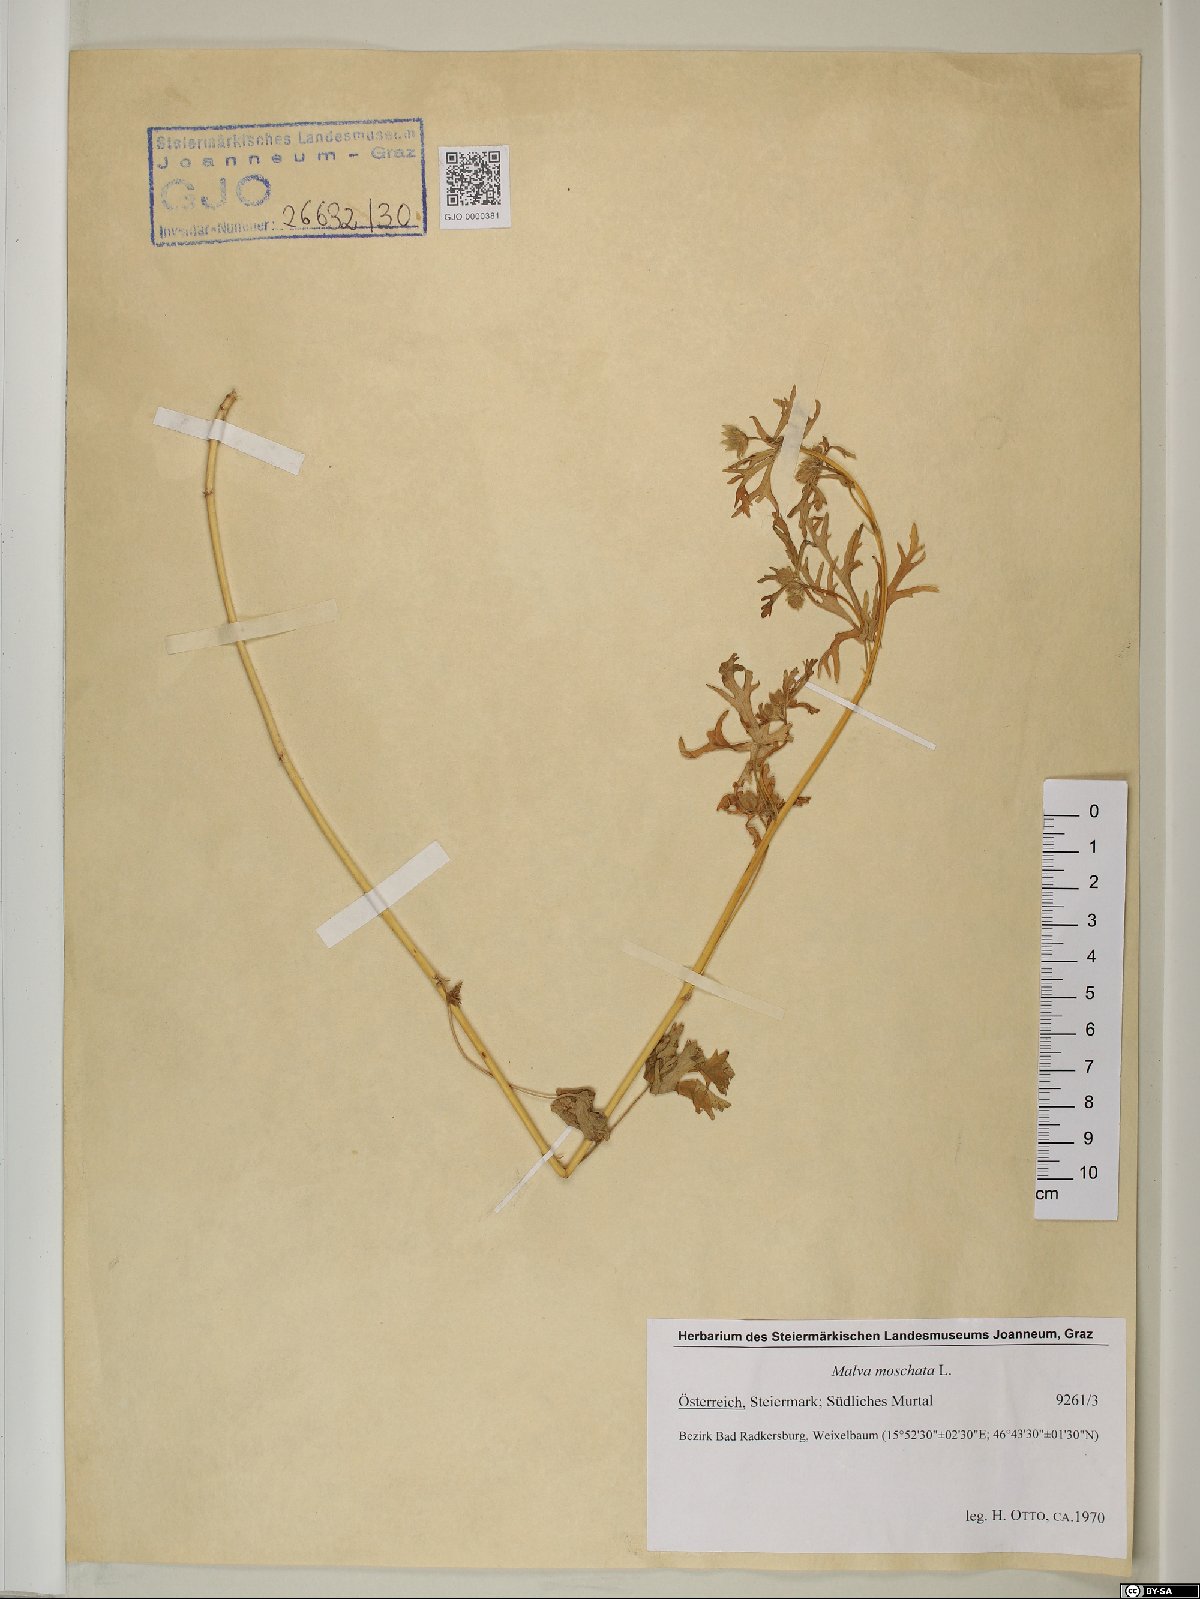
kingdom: Plantae
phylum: Tracheophyta
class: Magnoliopsida
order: Malvales
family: Malvaceae
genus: Malva
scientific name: Malva moschata
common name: Musk mallow
